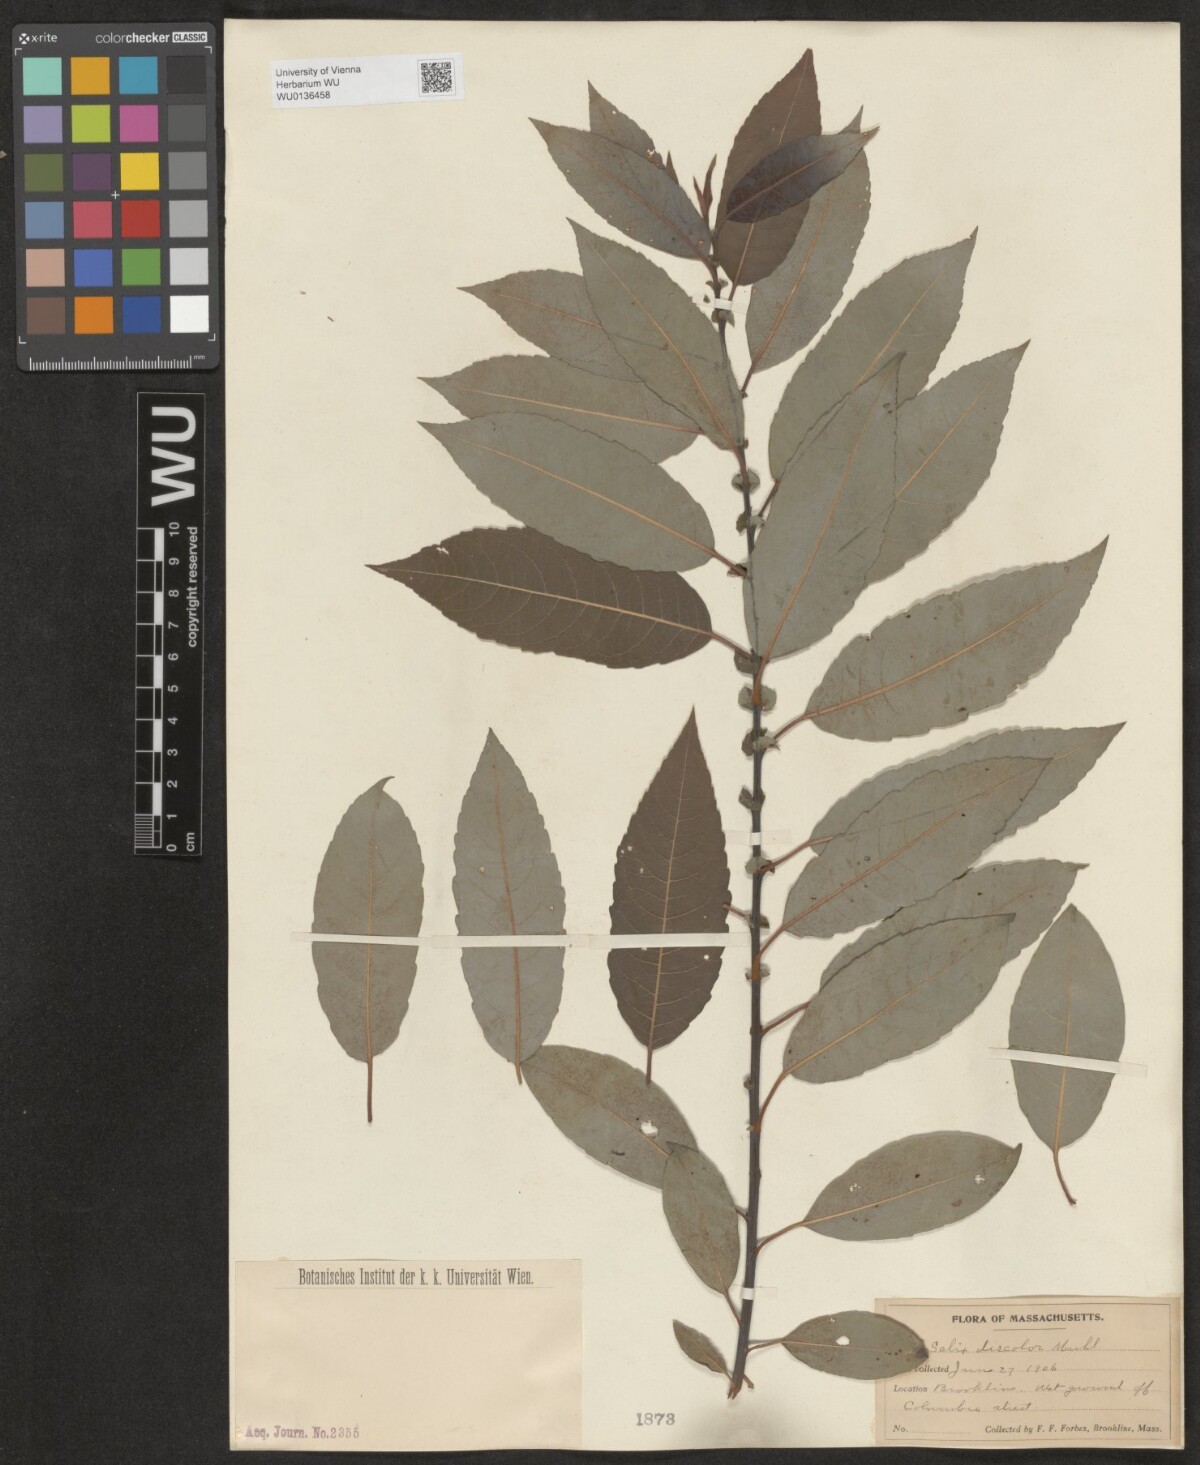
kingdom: Plantae
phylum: Tracheophyta
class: Magnoliopsida
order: Malpighiales
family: Salicaceae
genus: Salix
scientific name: Salix discolor
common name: Glaucous willow
